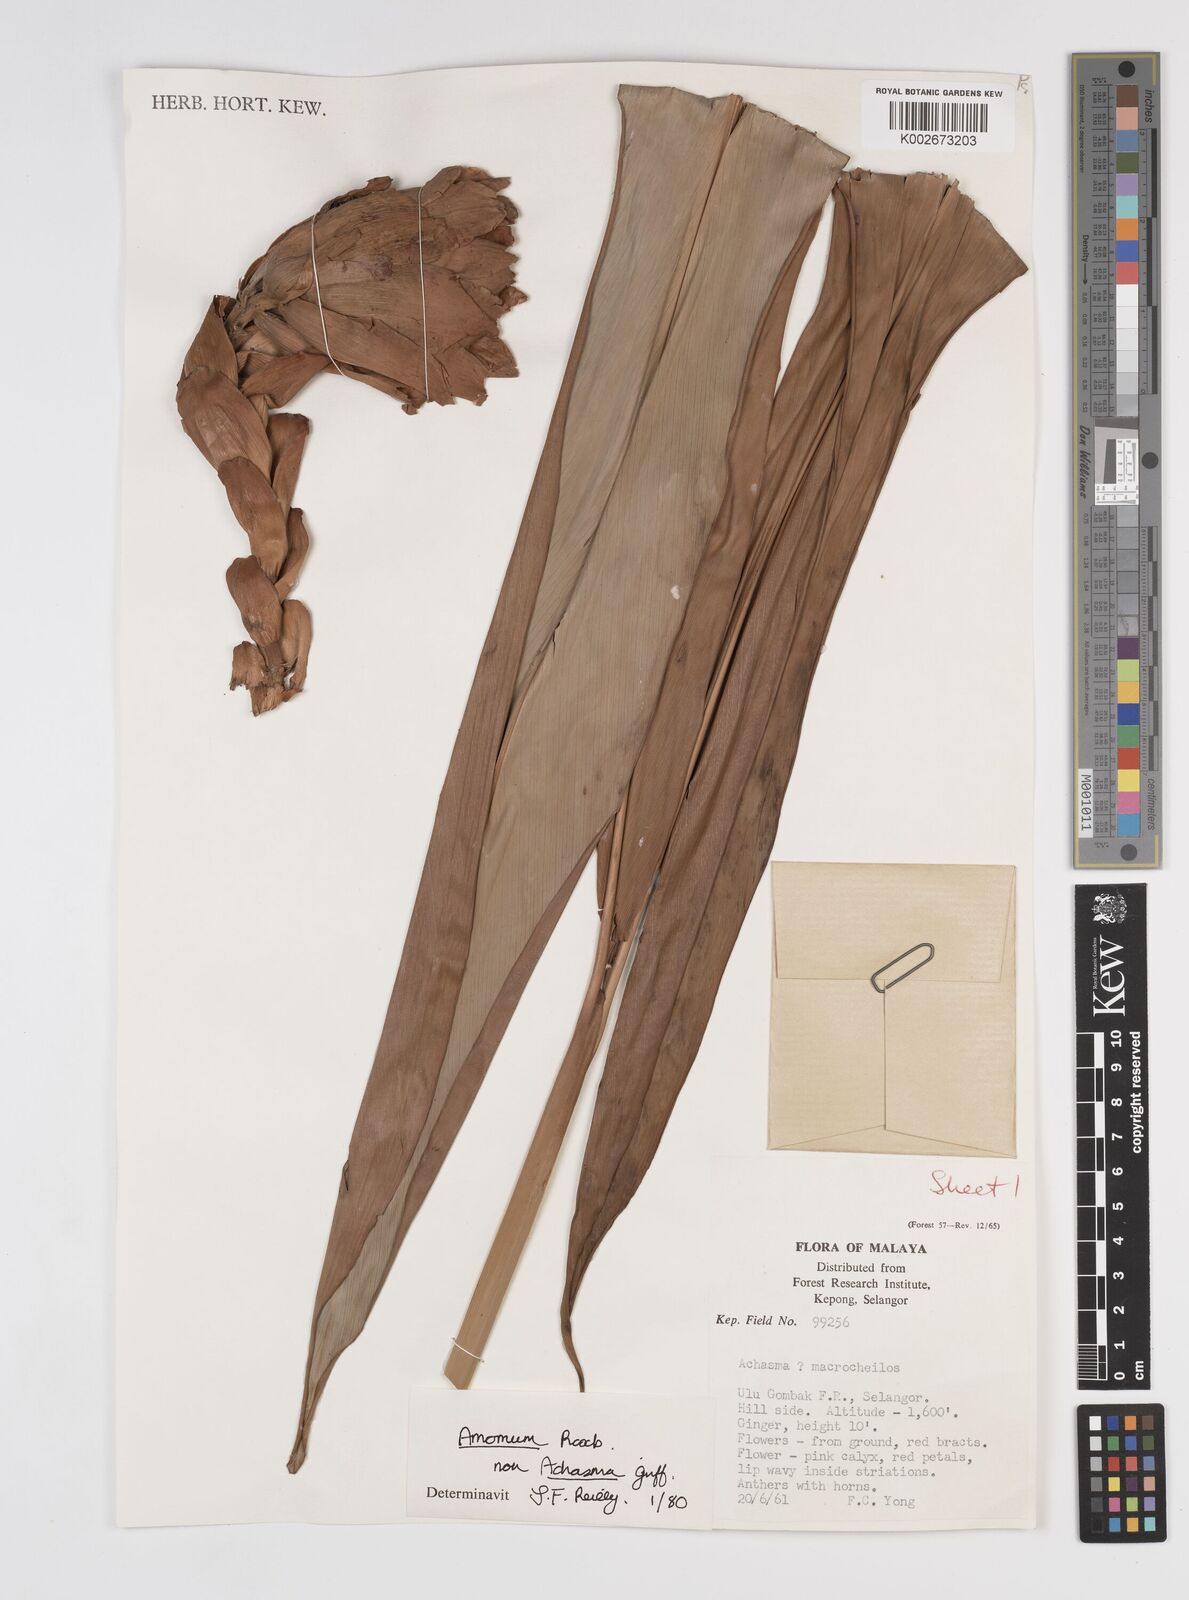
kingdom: Plantae
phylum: Tracheophyta
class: Liliopsida
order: Zingiberales
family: Zingiberaceae
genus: Amomum
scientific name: Amomum
